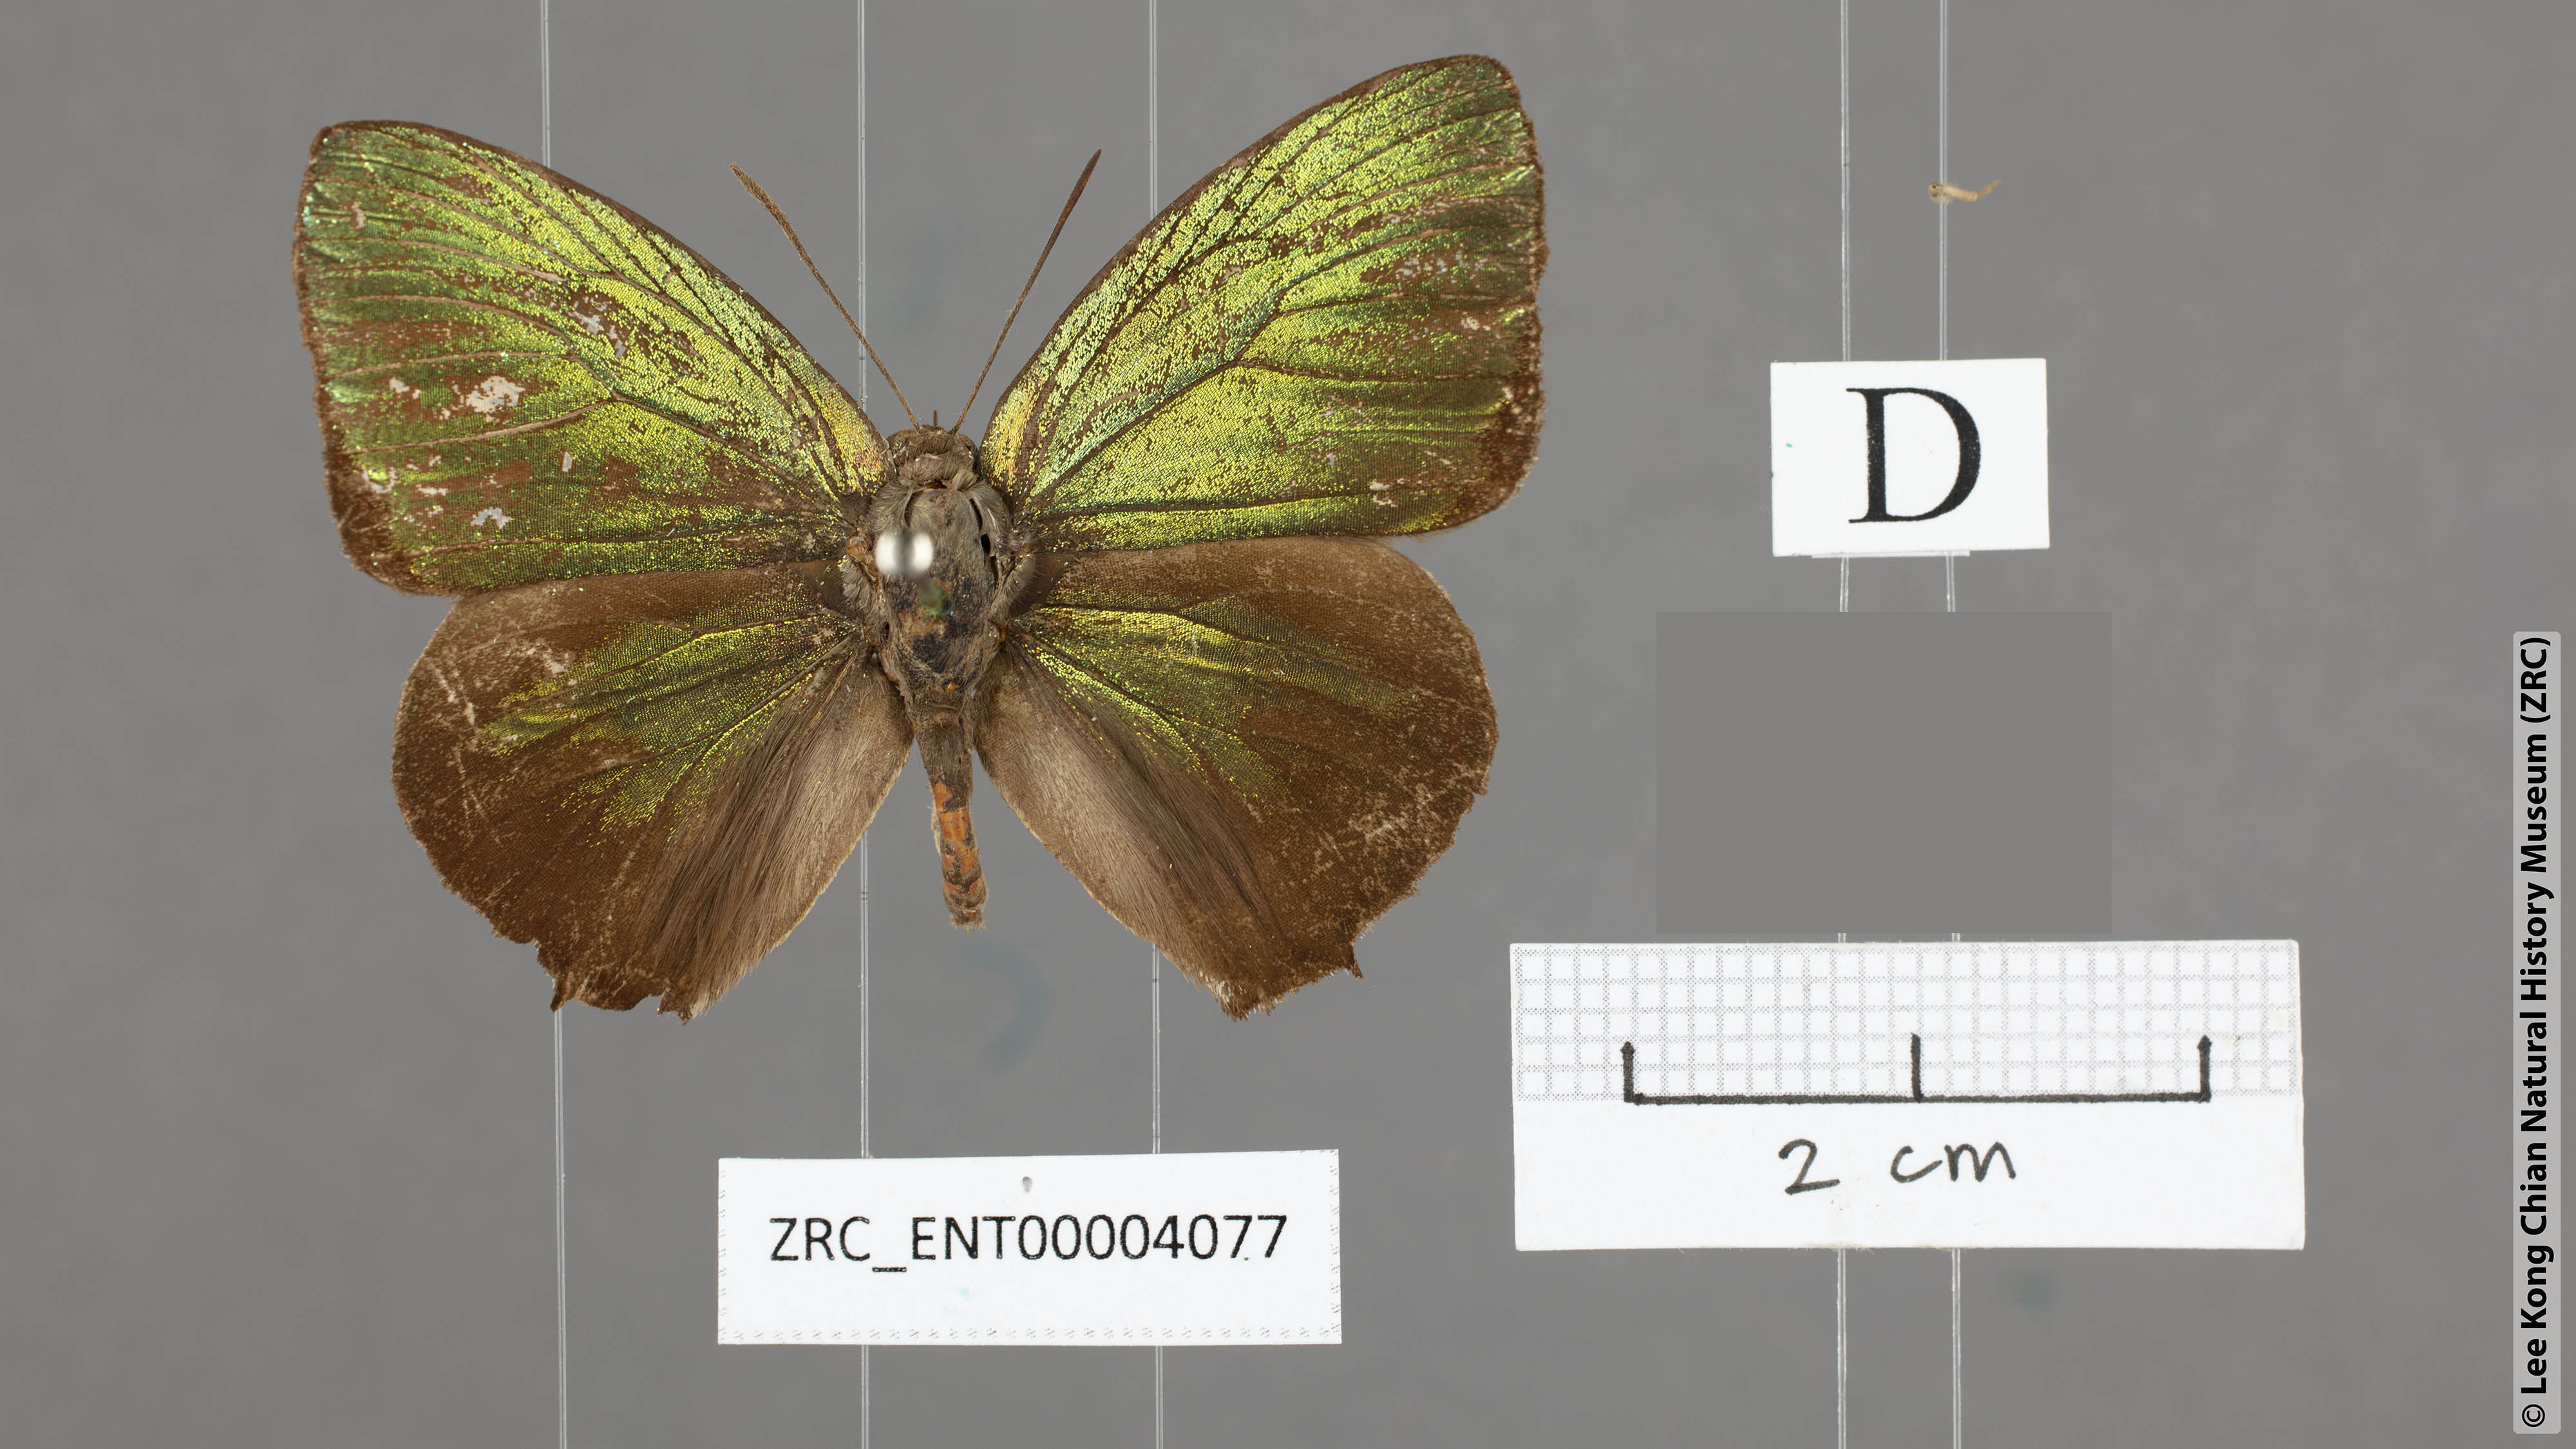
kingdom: Animalia
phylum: Arthropoda
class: Insecta
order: Lepidoptera
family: Lycaenidae
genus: Arhopala
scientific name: Arhopala hellenore
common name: Doherty's green oakblue
